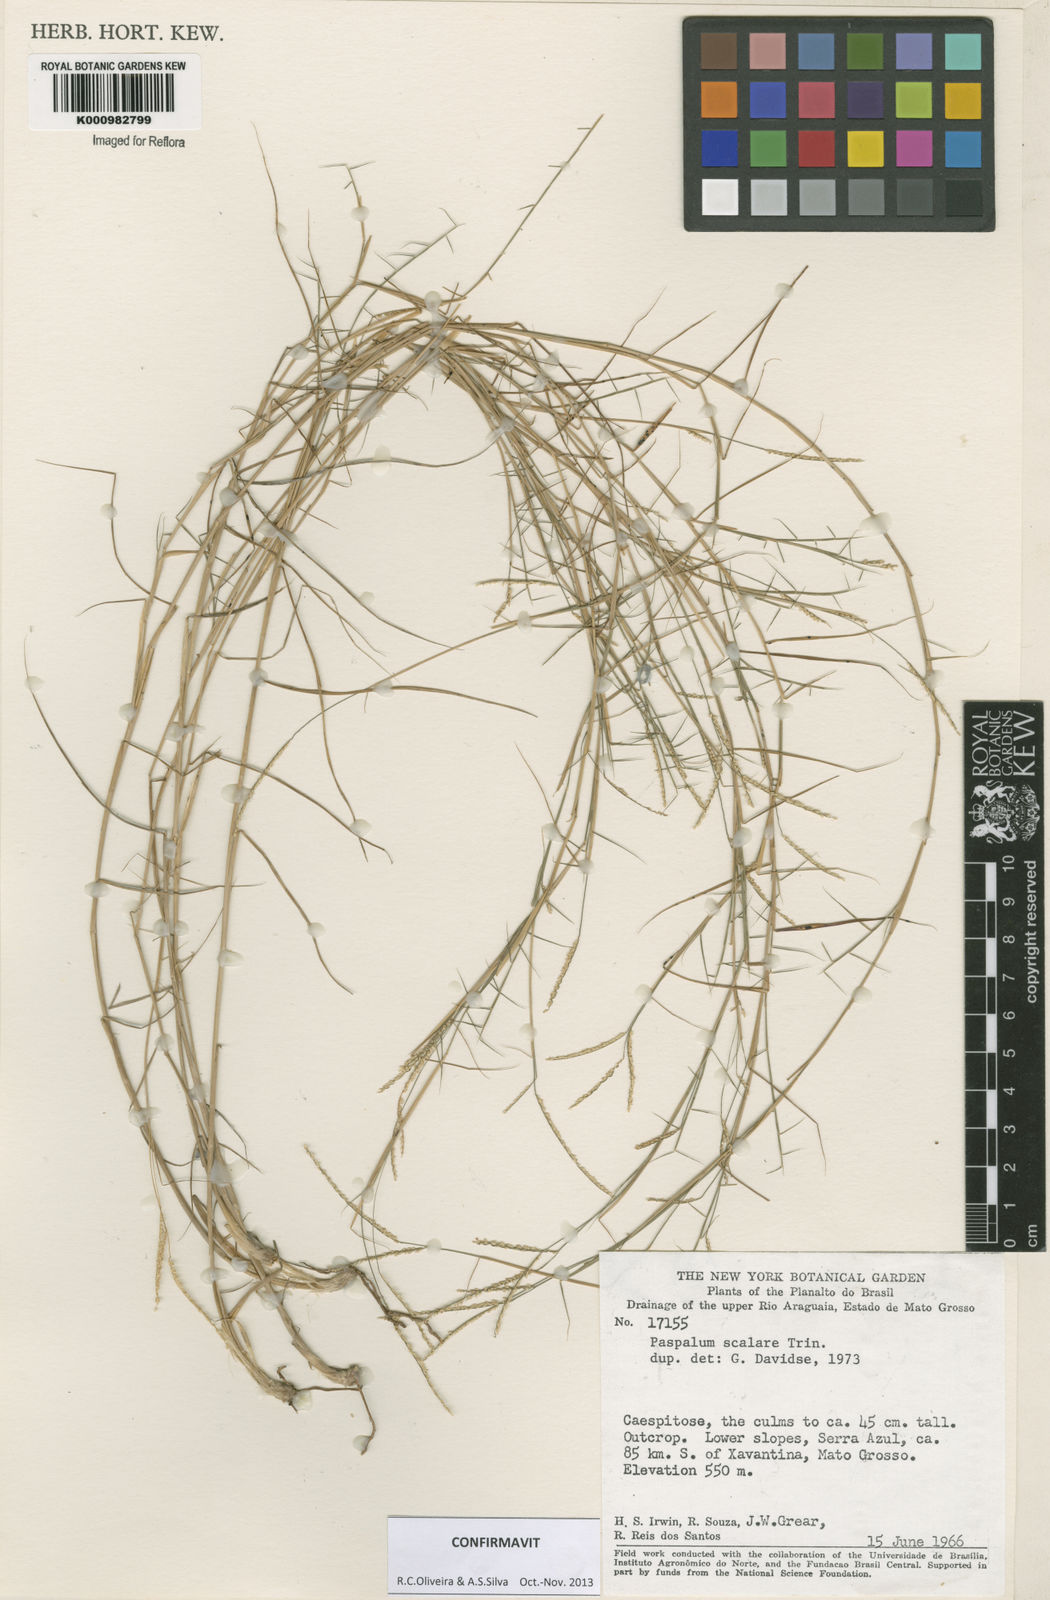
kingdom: Plantae
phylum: Tracheophyta
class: Liliopsida
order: Poales
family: Poaceae
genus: Paspalum
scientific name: Paspalum scalare
